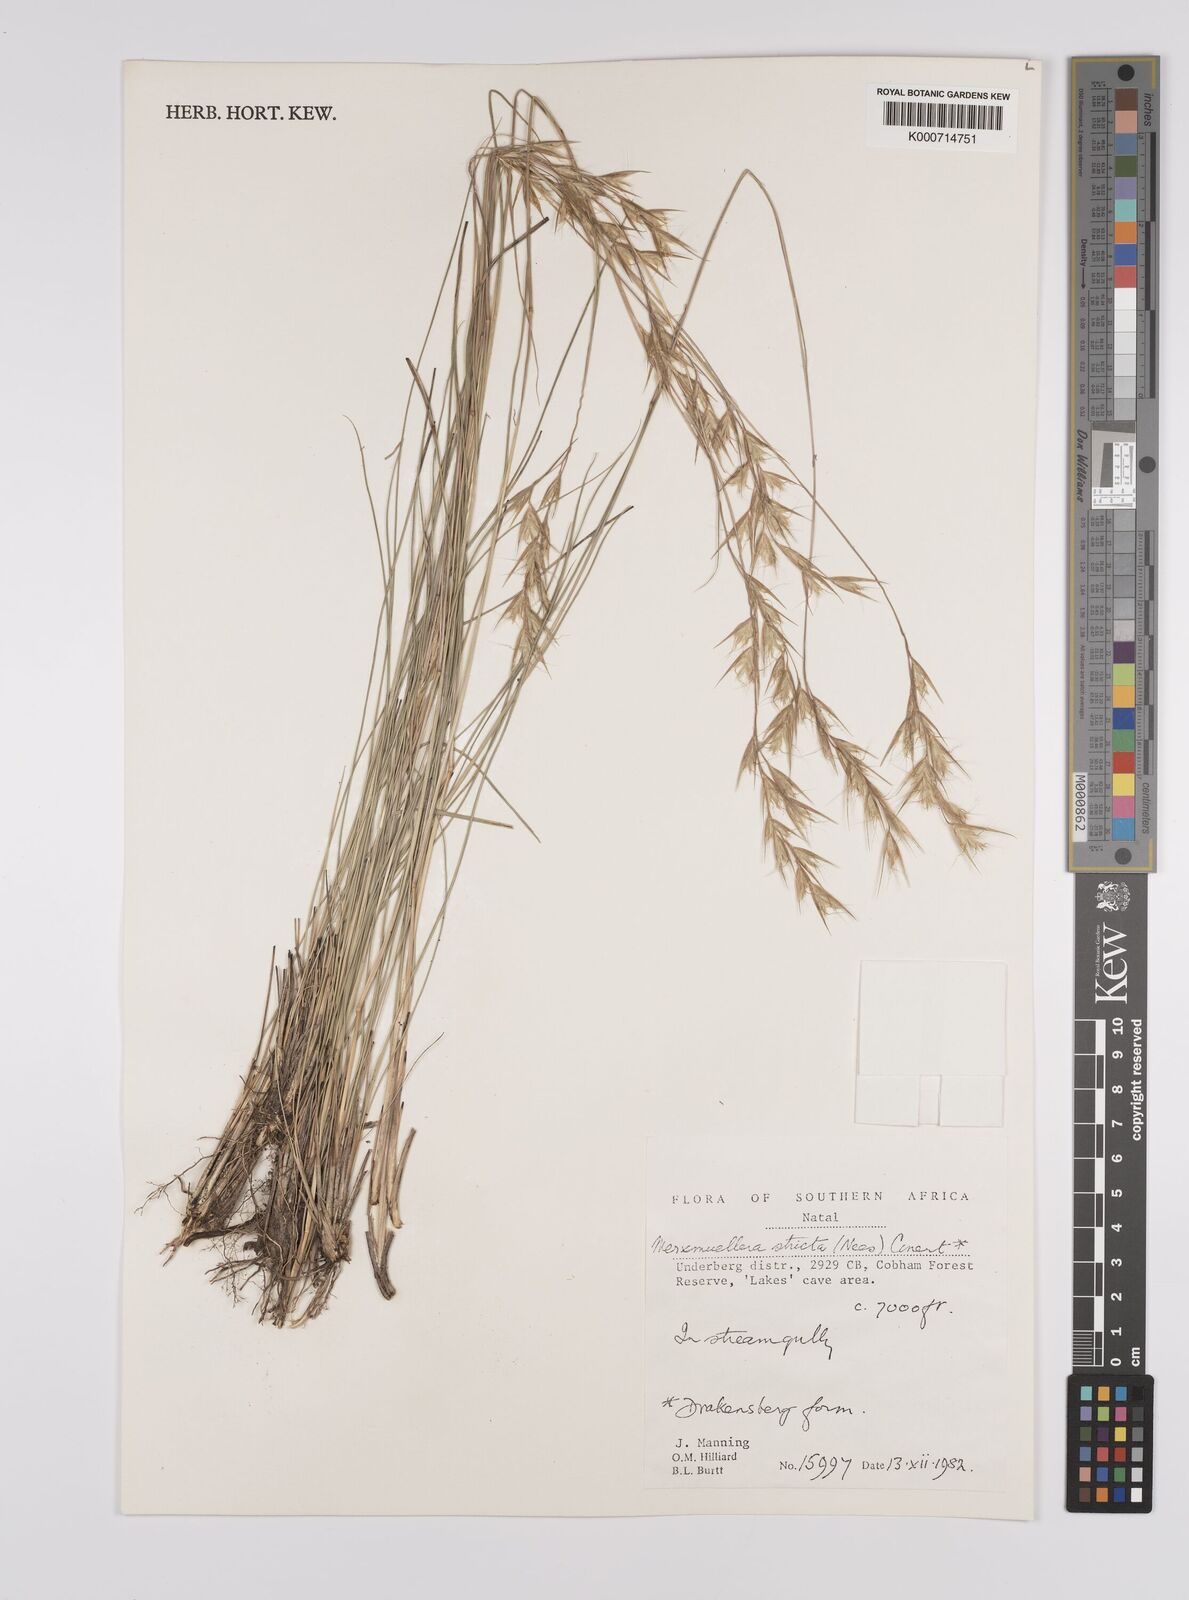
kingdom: Plantae
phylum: Tracheophyta
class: Liliopsida
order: Poales
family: Poaceae
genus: Rytidosperma
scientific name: Rytidosperma
